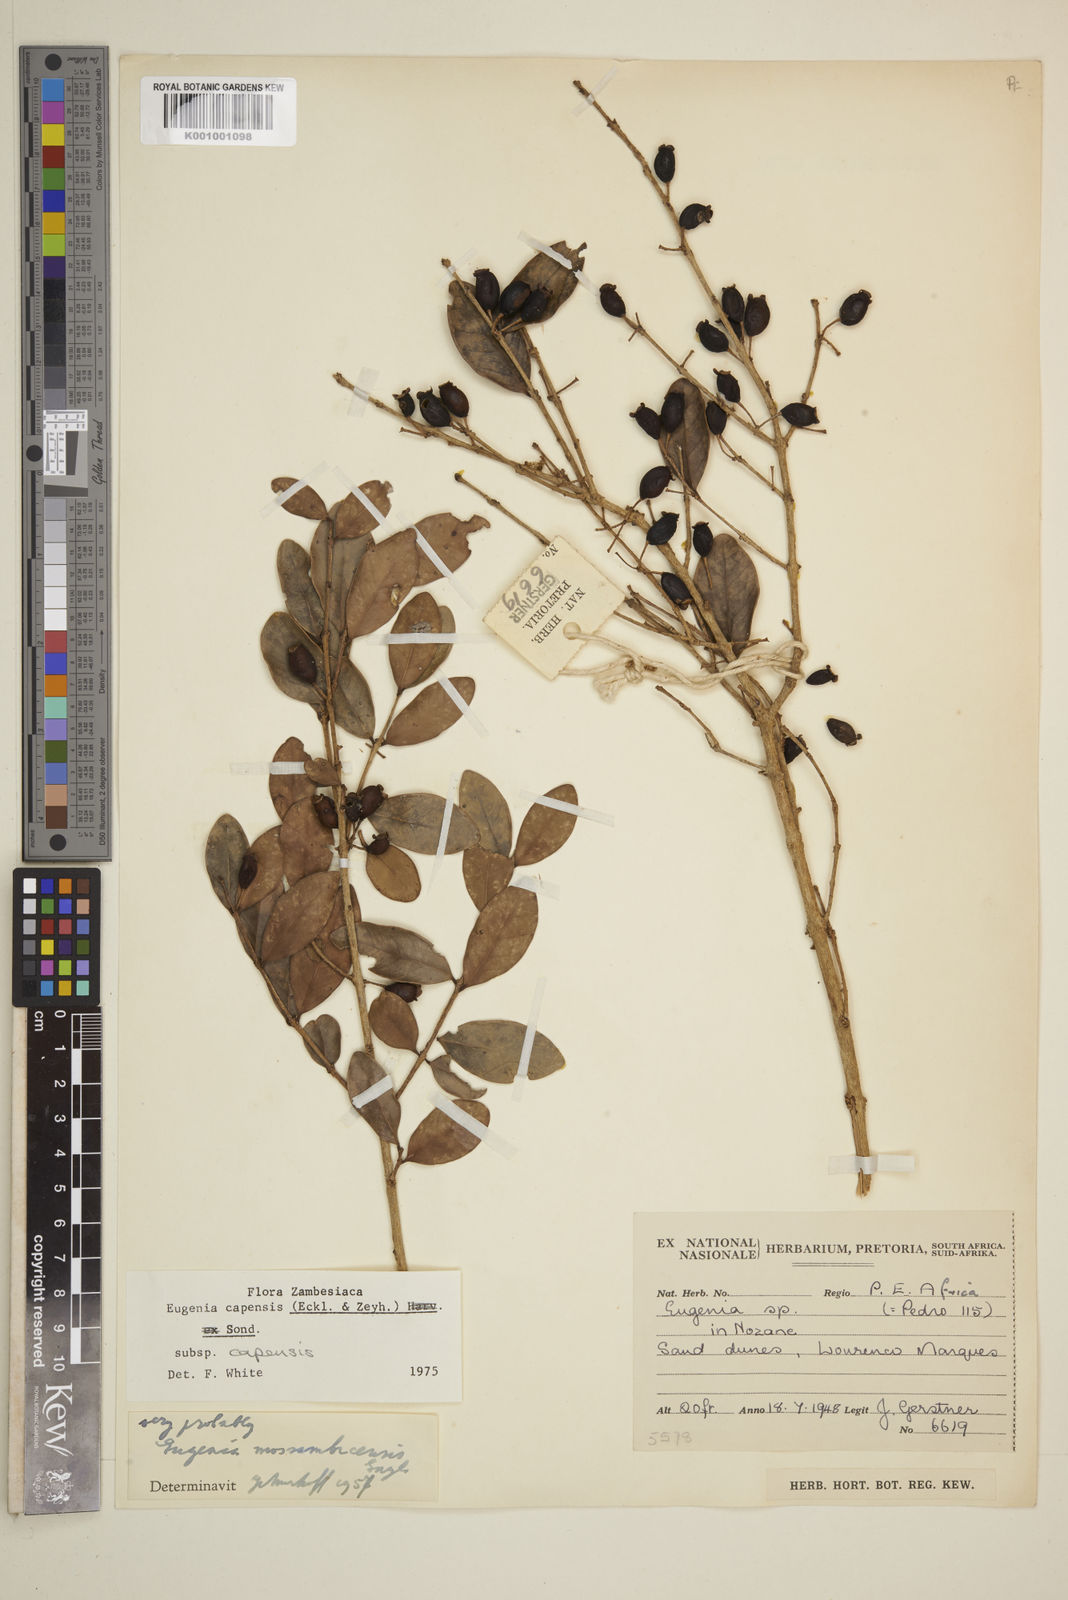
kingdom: Plantae
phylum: Tracheophyta
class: Magnoliopsida
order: Myrtales
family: Myrtaceae
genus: Eugenia
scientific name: Eugenia capensis
